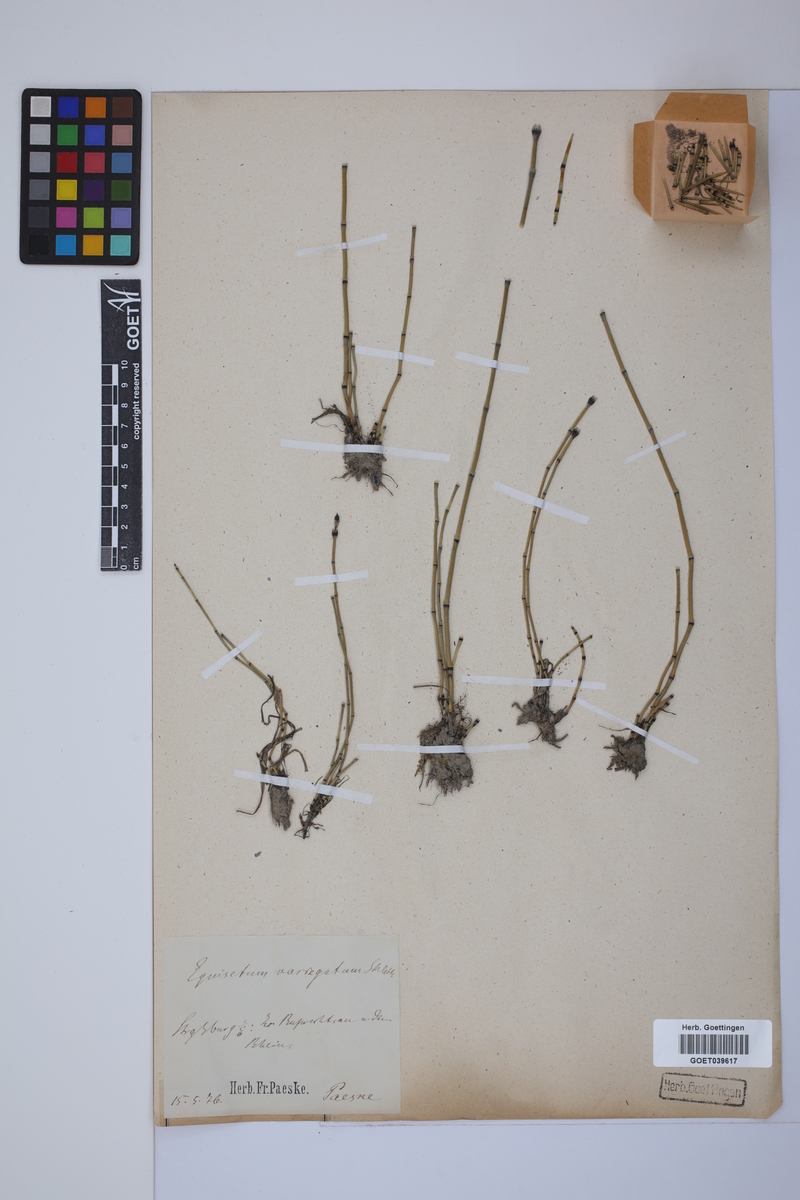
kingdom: Plantae
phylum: Tracheophyta
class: Polypodiopsida
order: Equisetales
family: Equisetaceae
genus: Equisetum
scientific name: Equisetum variegatum
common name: Variegated horsetail
